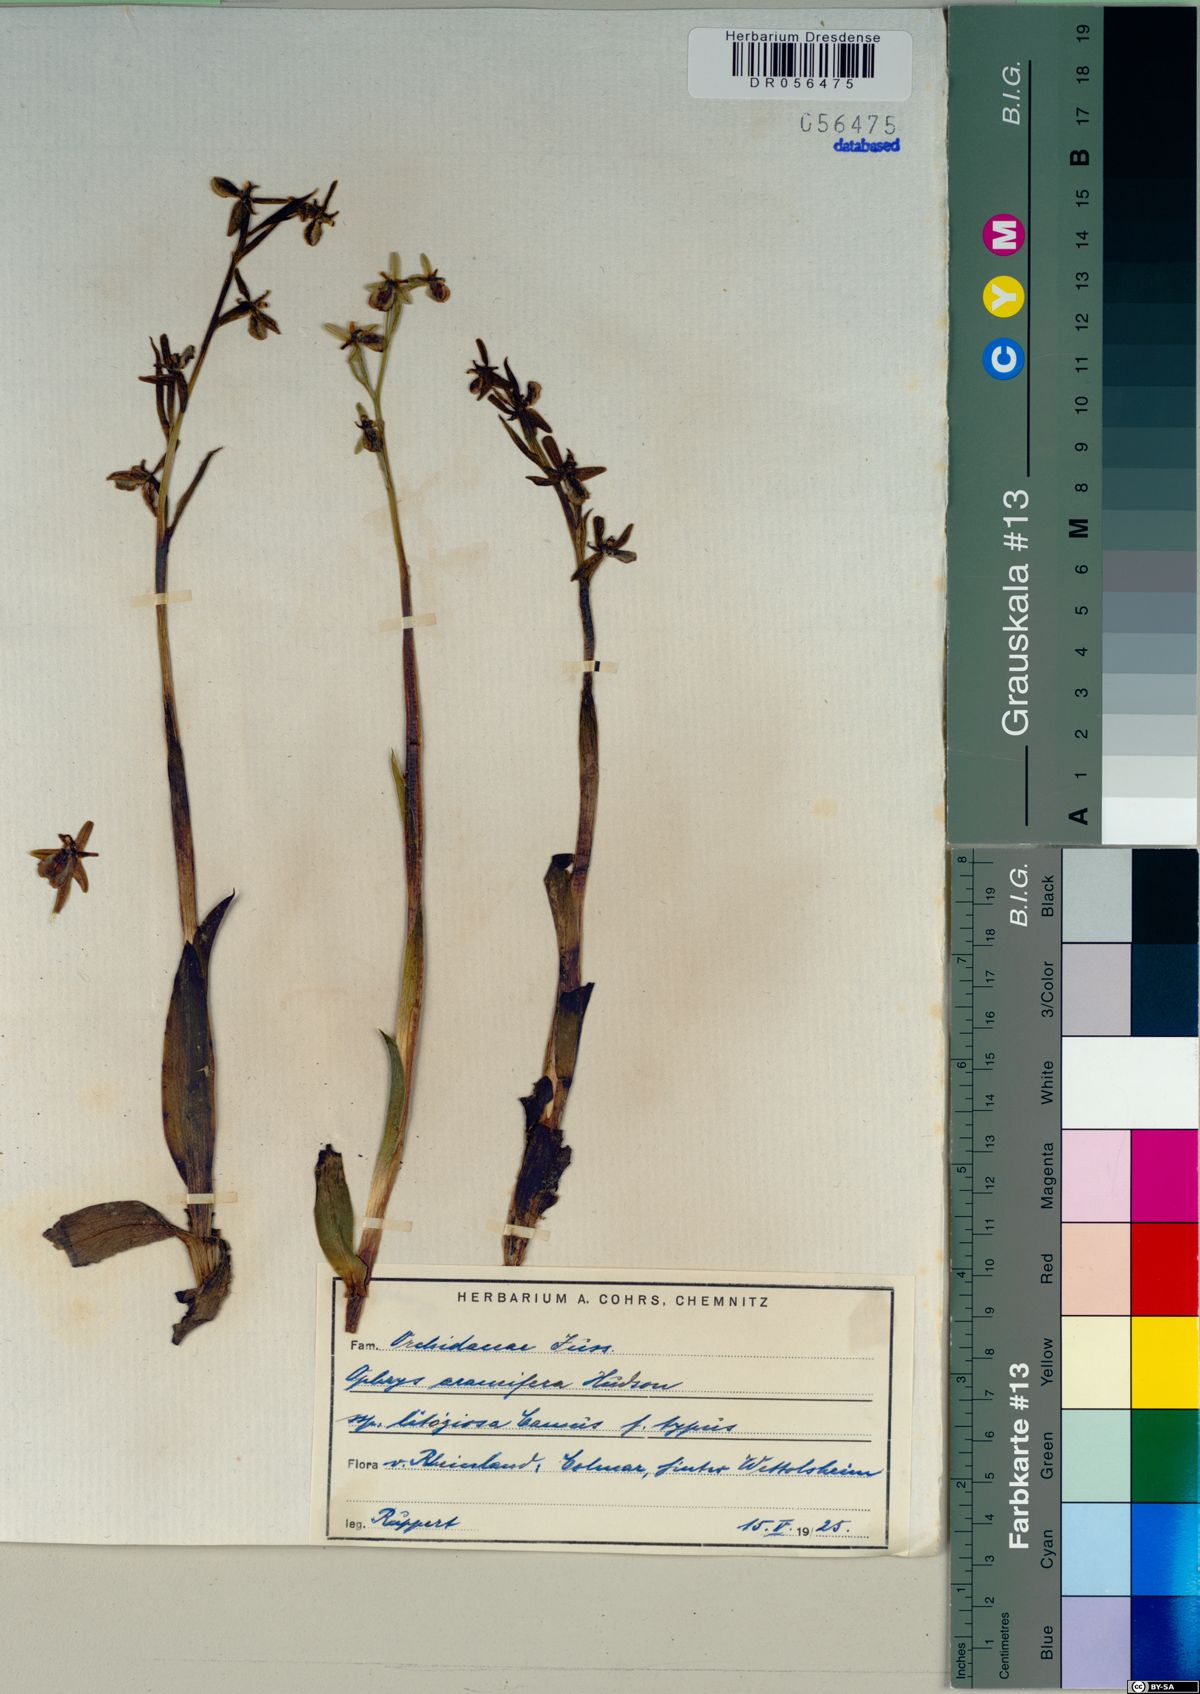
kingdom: Plantae
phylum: Tracheophyta
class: Liliopsida
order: Asparagales
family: Orchidaceae
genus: Ophrys
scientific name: Ophrys sphegodes
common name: Early spider-orchid
